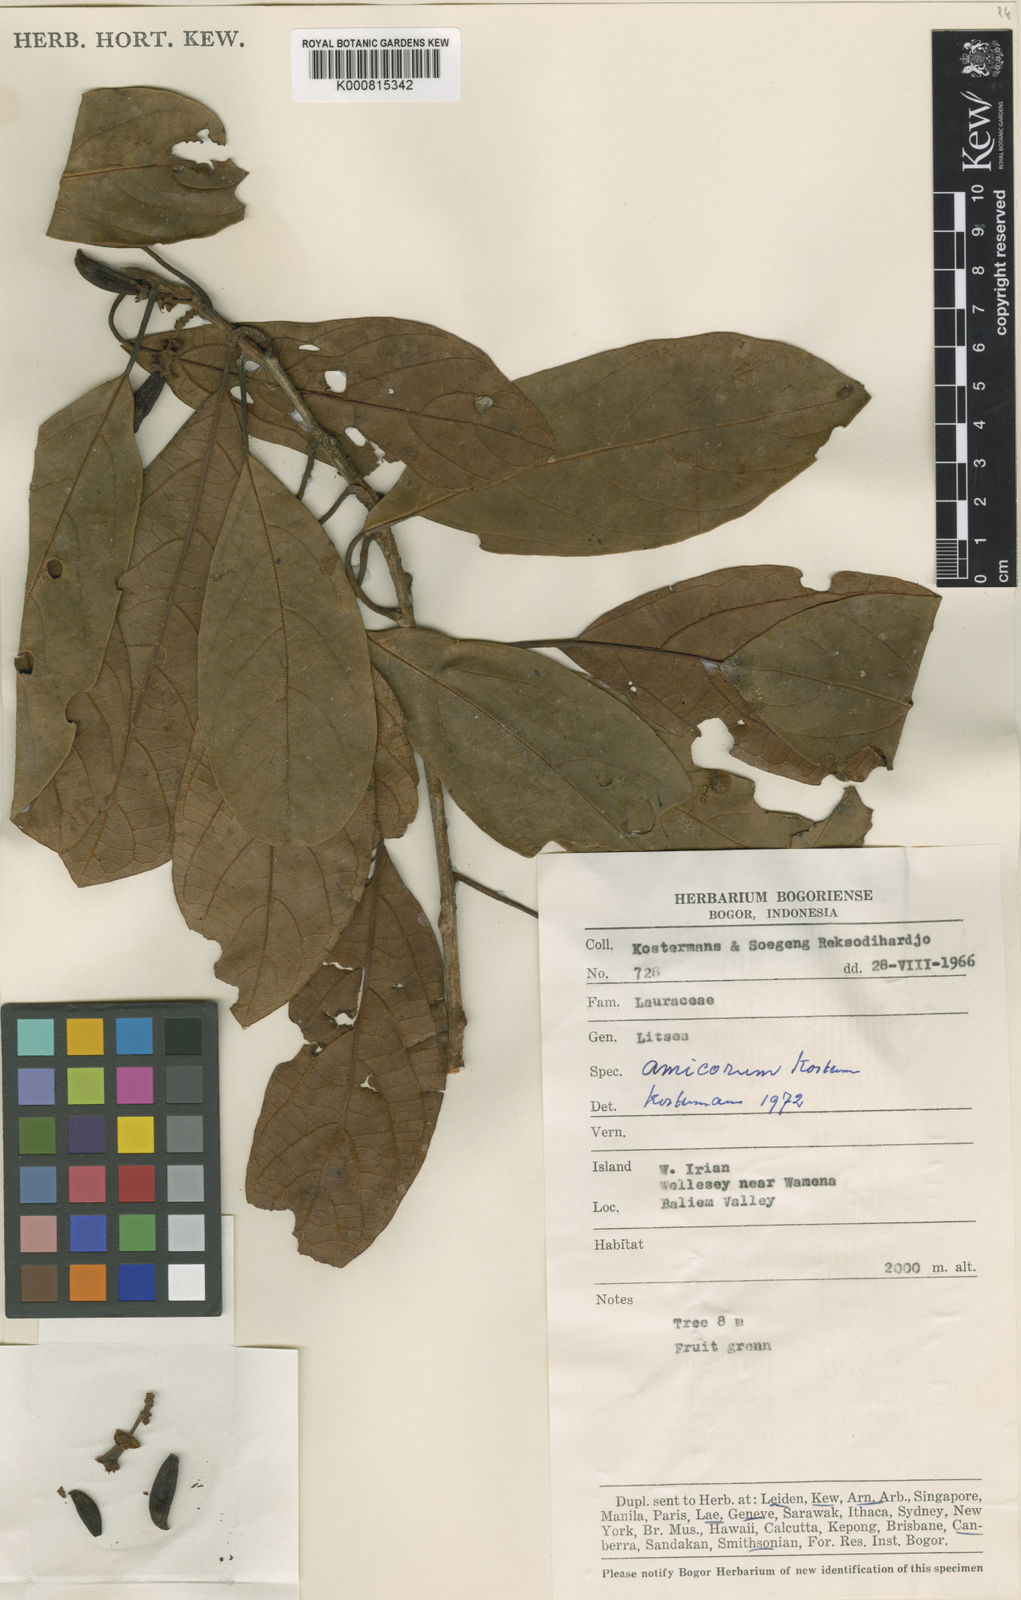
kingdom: Plantae
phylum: Tracheophyta
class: Magnoliopsida
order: Laurales
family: Lauraceae
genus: Litsea
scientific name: Litsea amicorum
